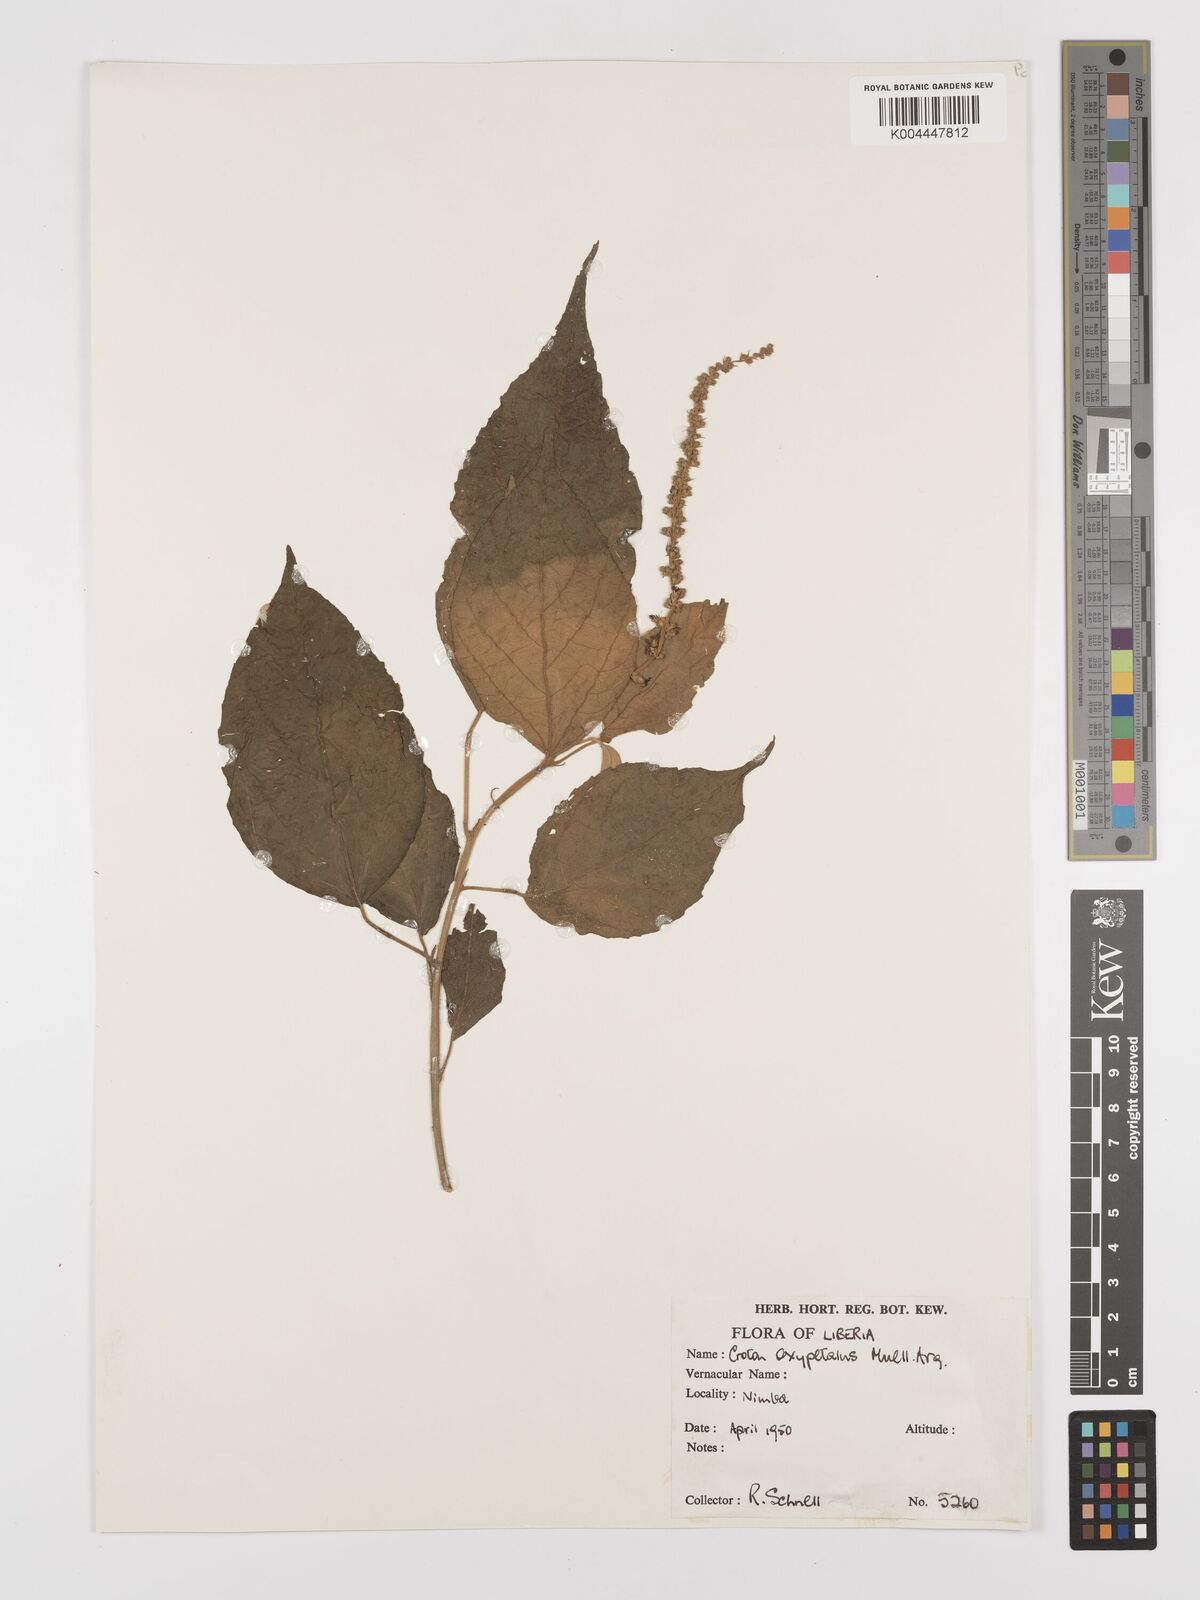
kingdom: Plantae
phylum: Tracheophyta
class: Magnoliopsida
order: Malpighiales
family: Euphorbiaceae
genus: Croton
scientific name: Croton
